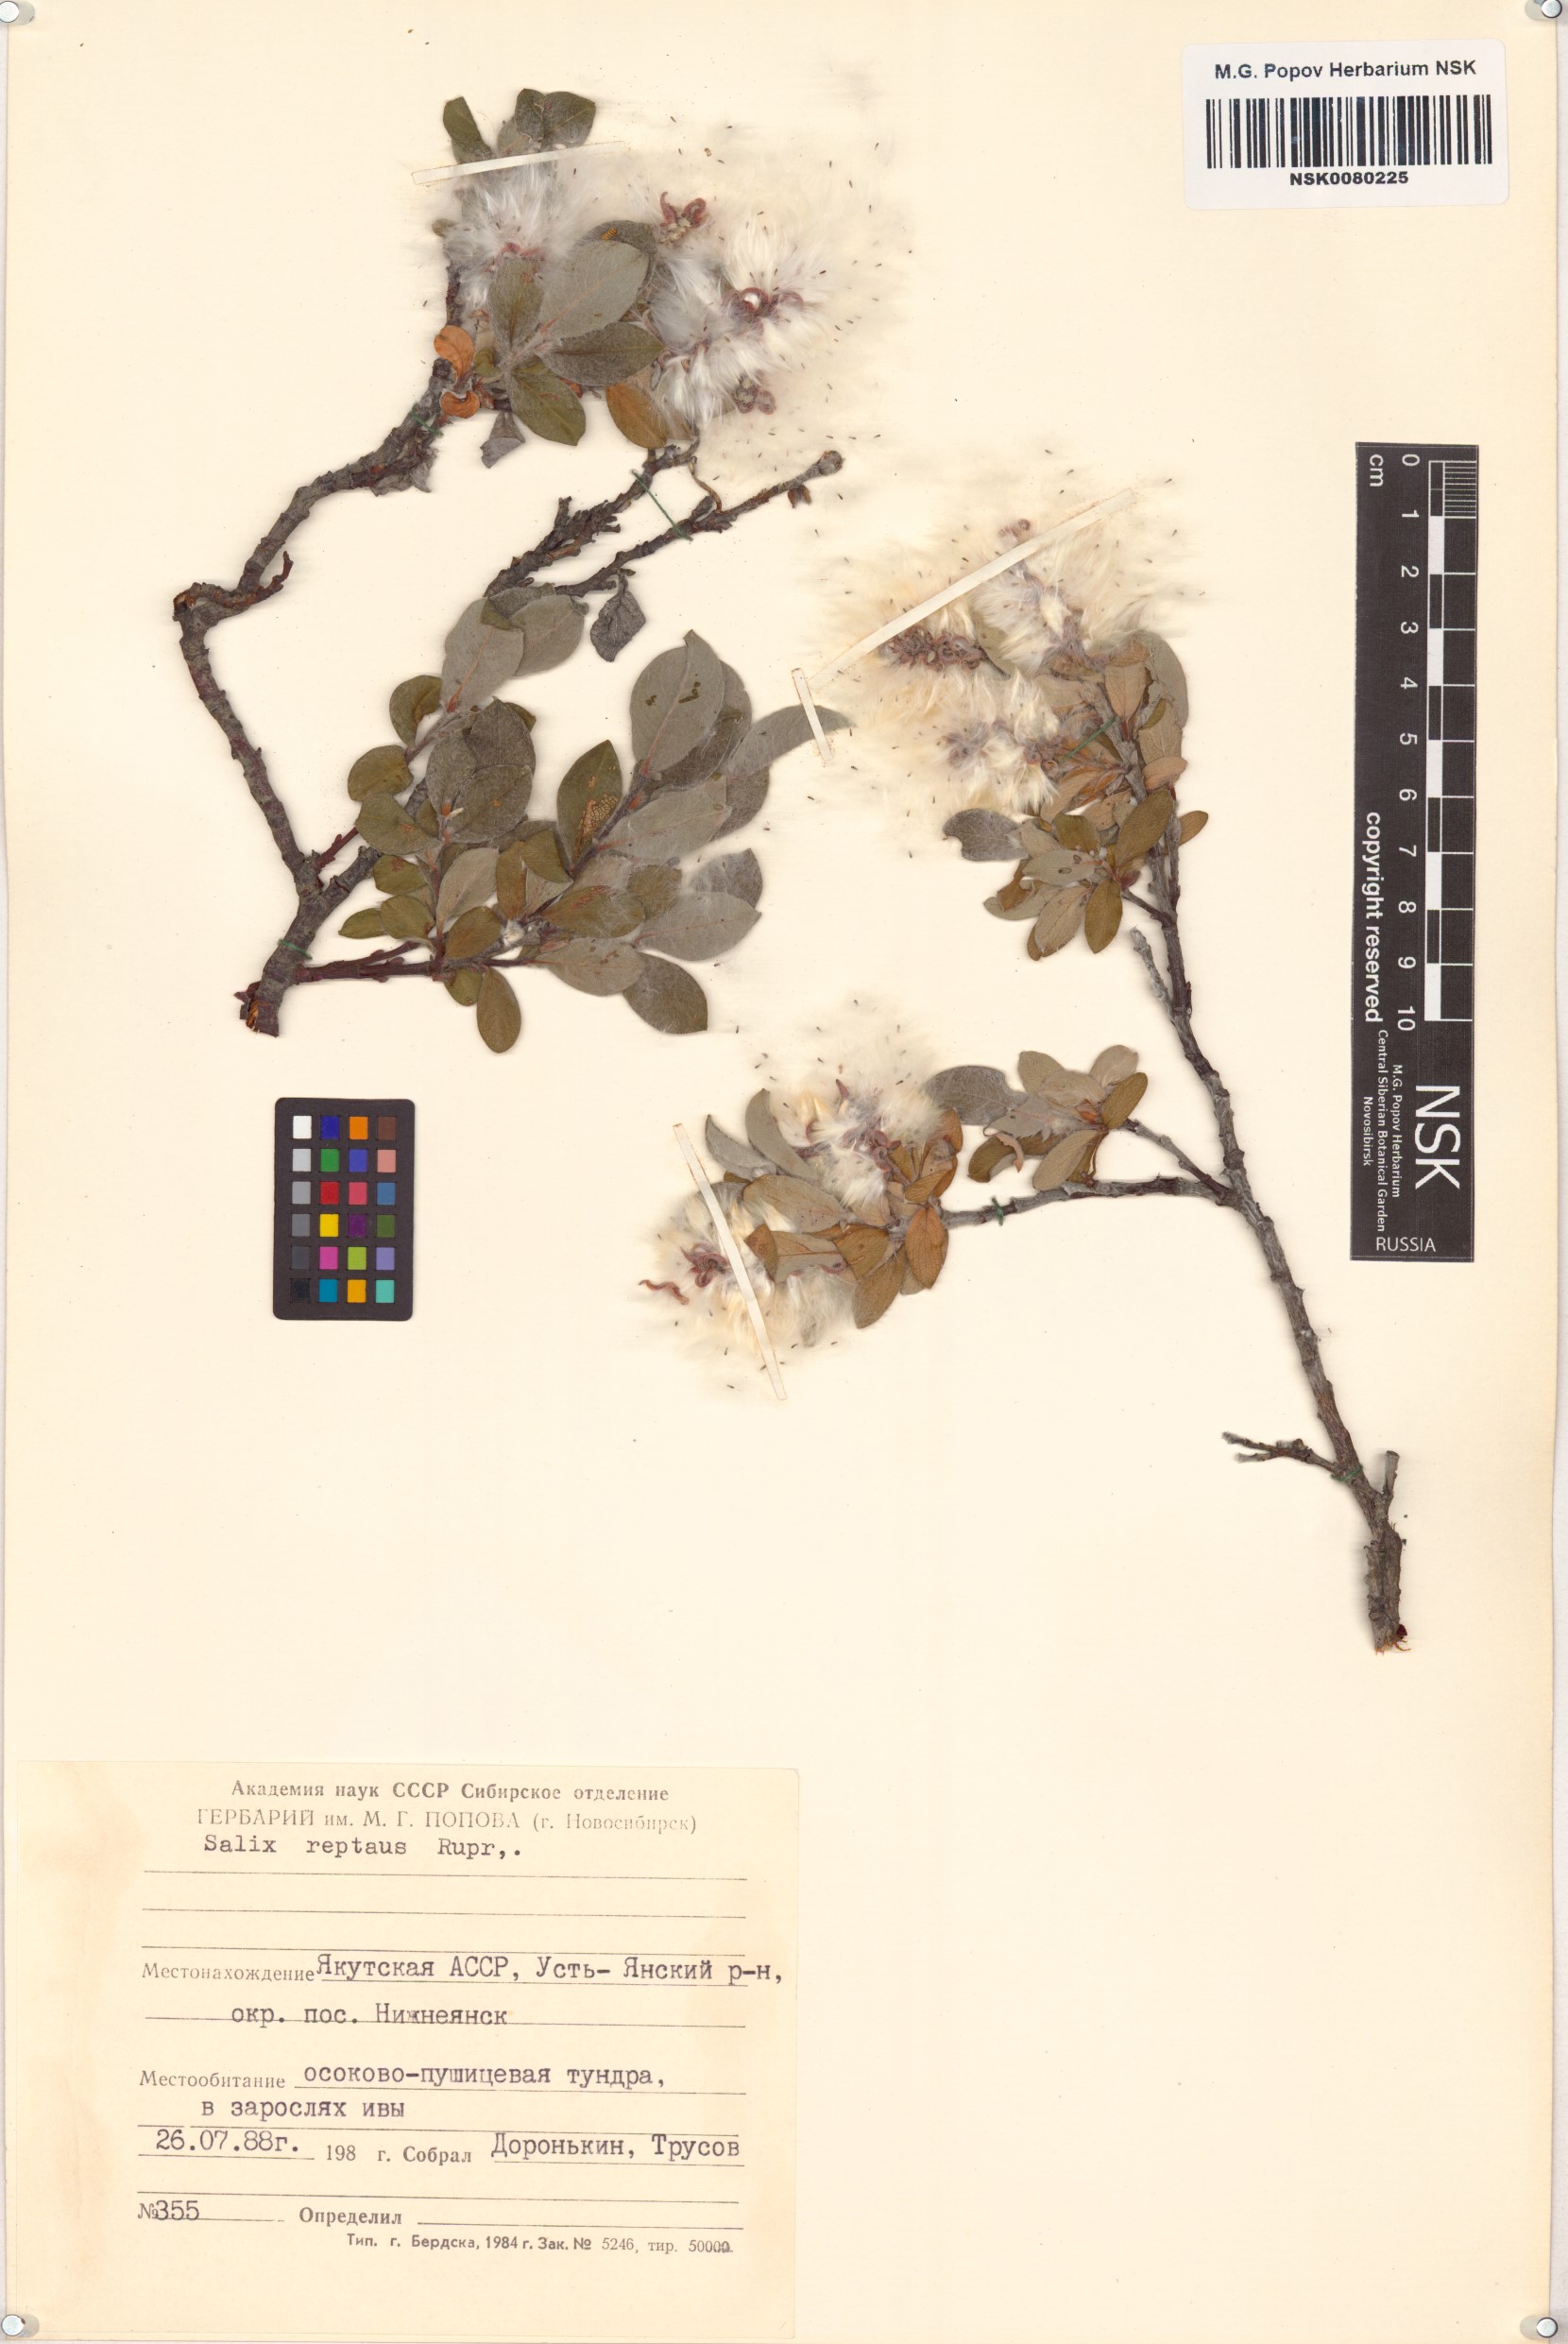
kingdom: Plantae
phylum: Tracheophyta
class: Magnoliopsida
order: Malpighiales
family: Salicaceae
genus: Salix
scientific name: Salix reptans
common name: Arctic creeping willow
